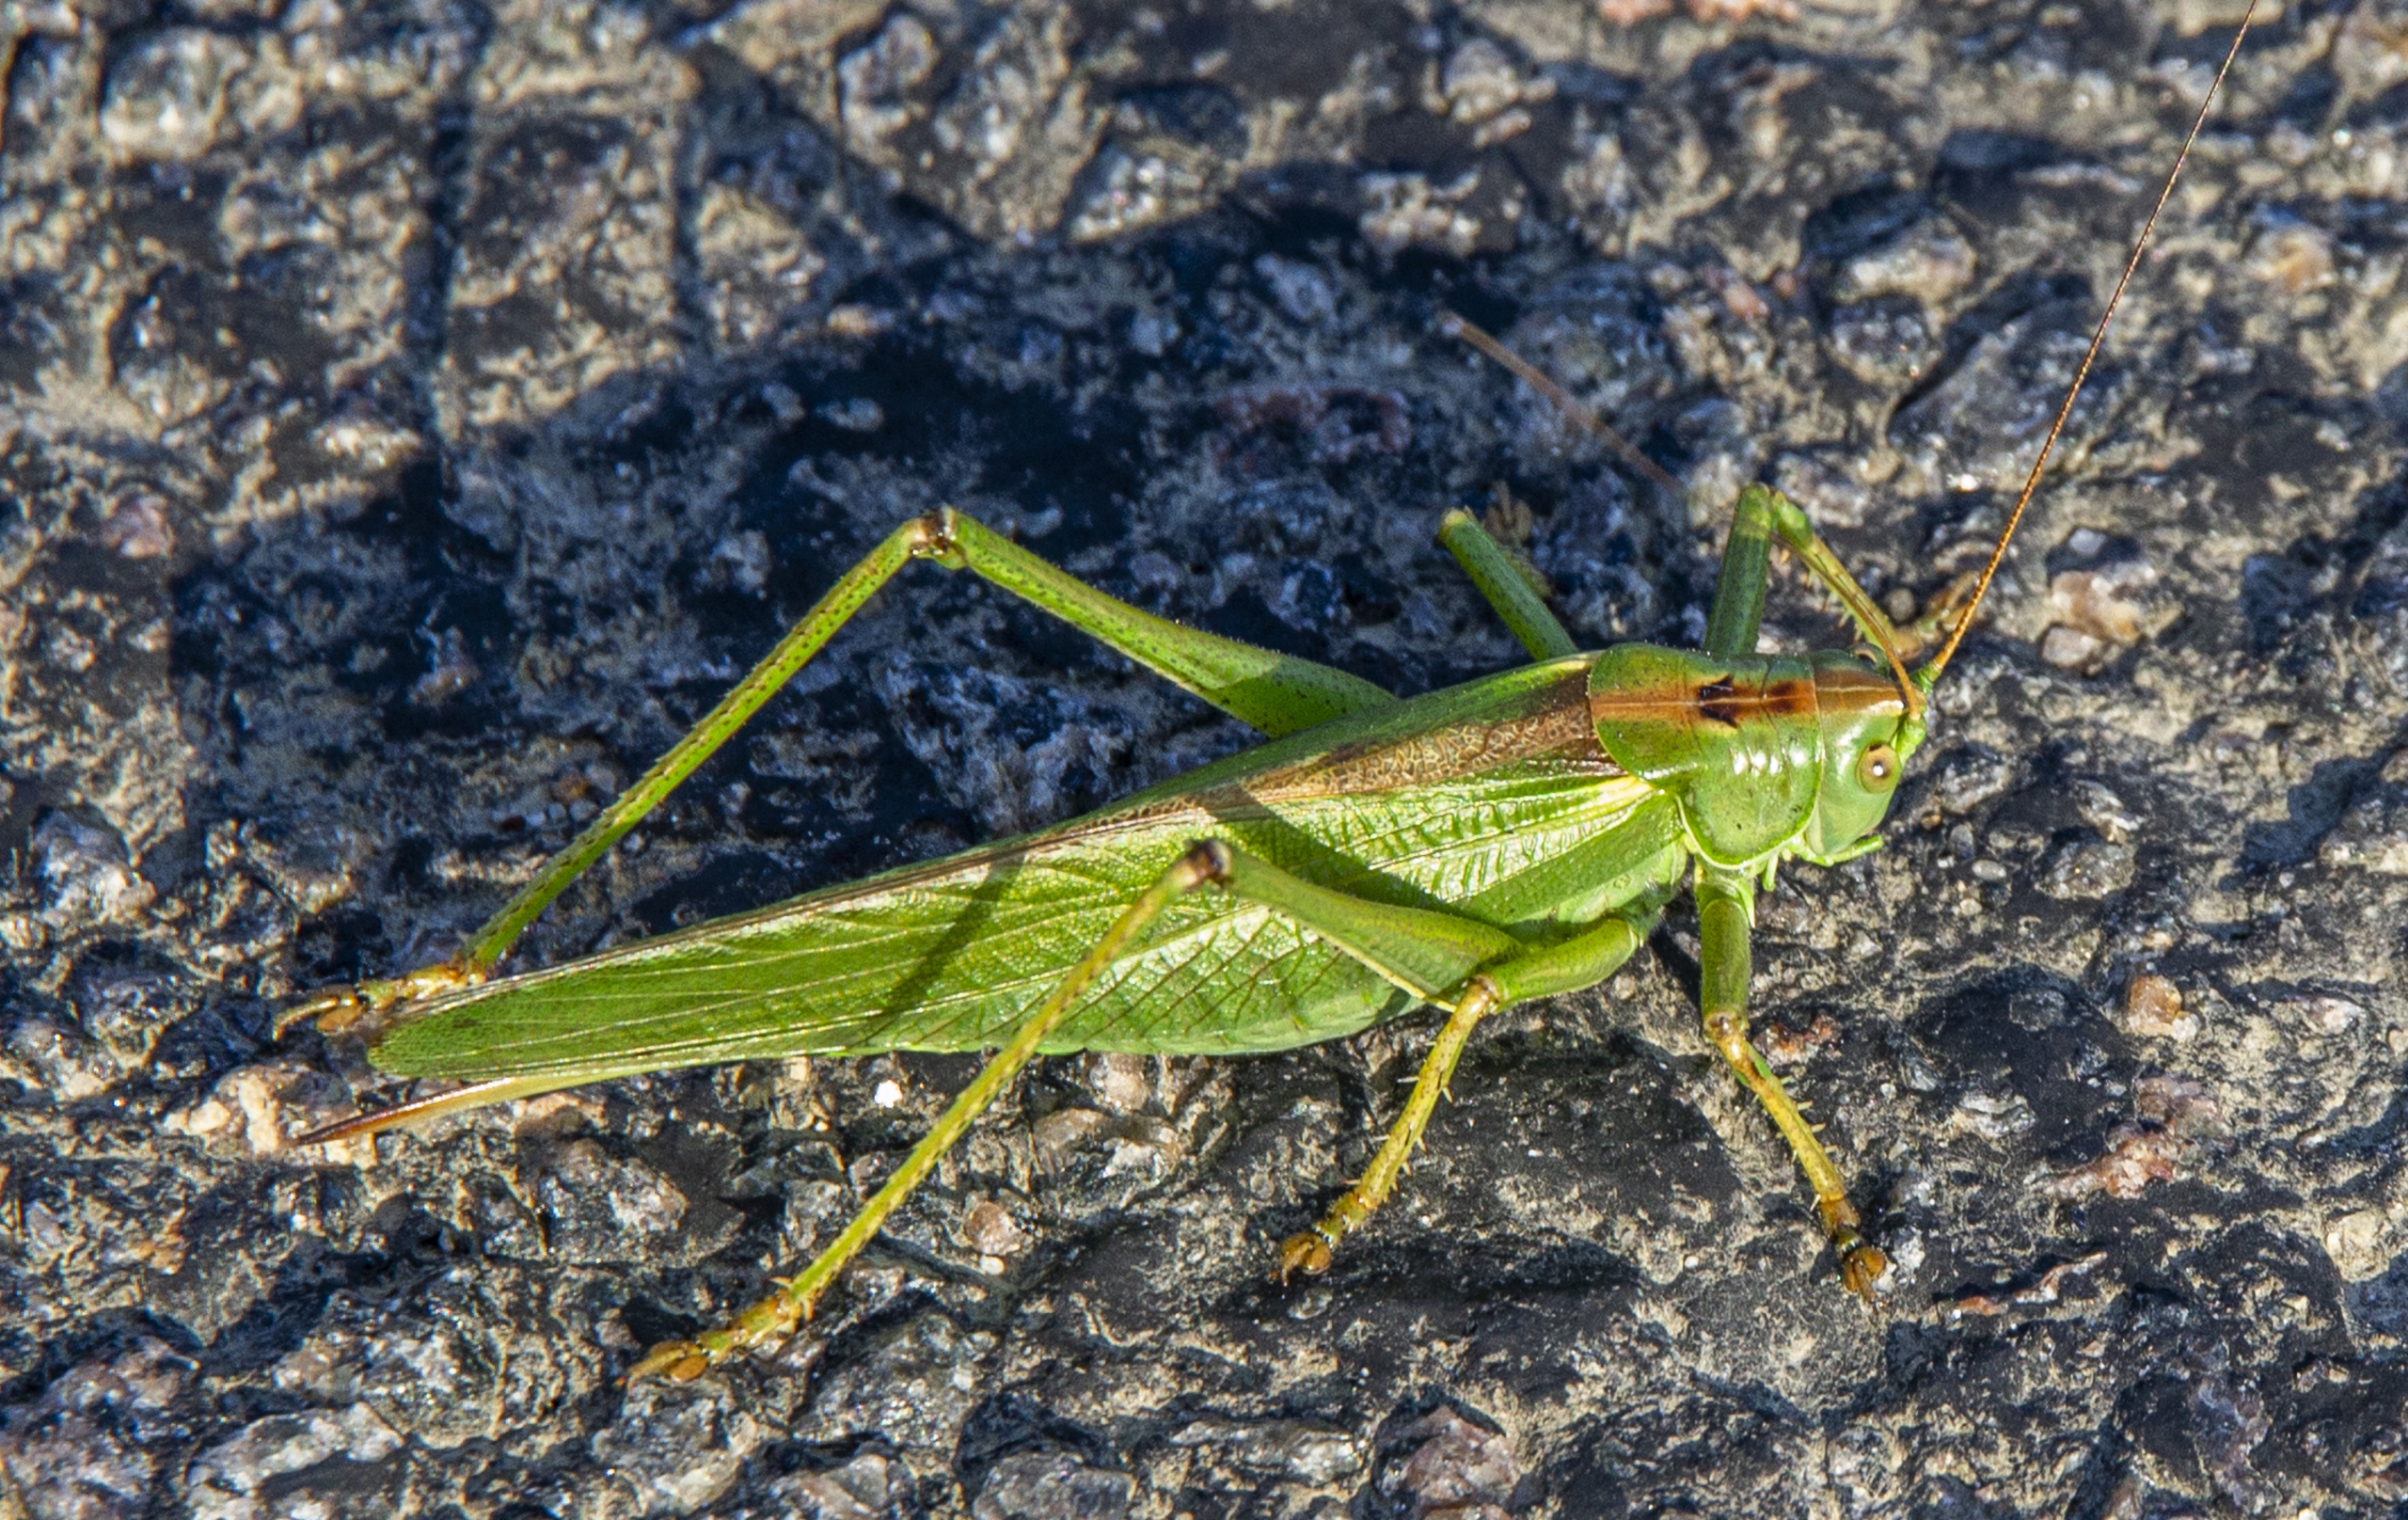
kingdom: Animalia
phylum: Arthropoda
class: Insecta
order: Orthoptera
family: Tettigoniidae
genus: Tettigonia
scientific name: Tettigonia viridissima
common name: Stor grøn løvgræshoppe
